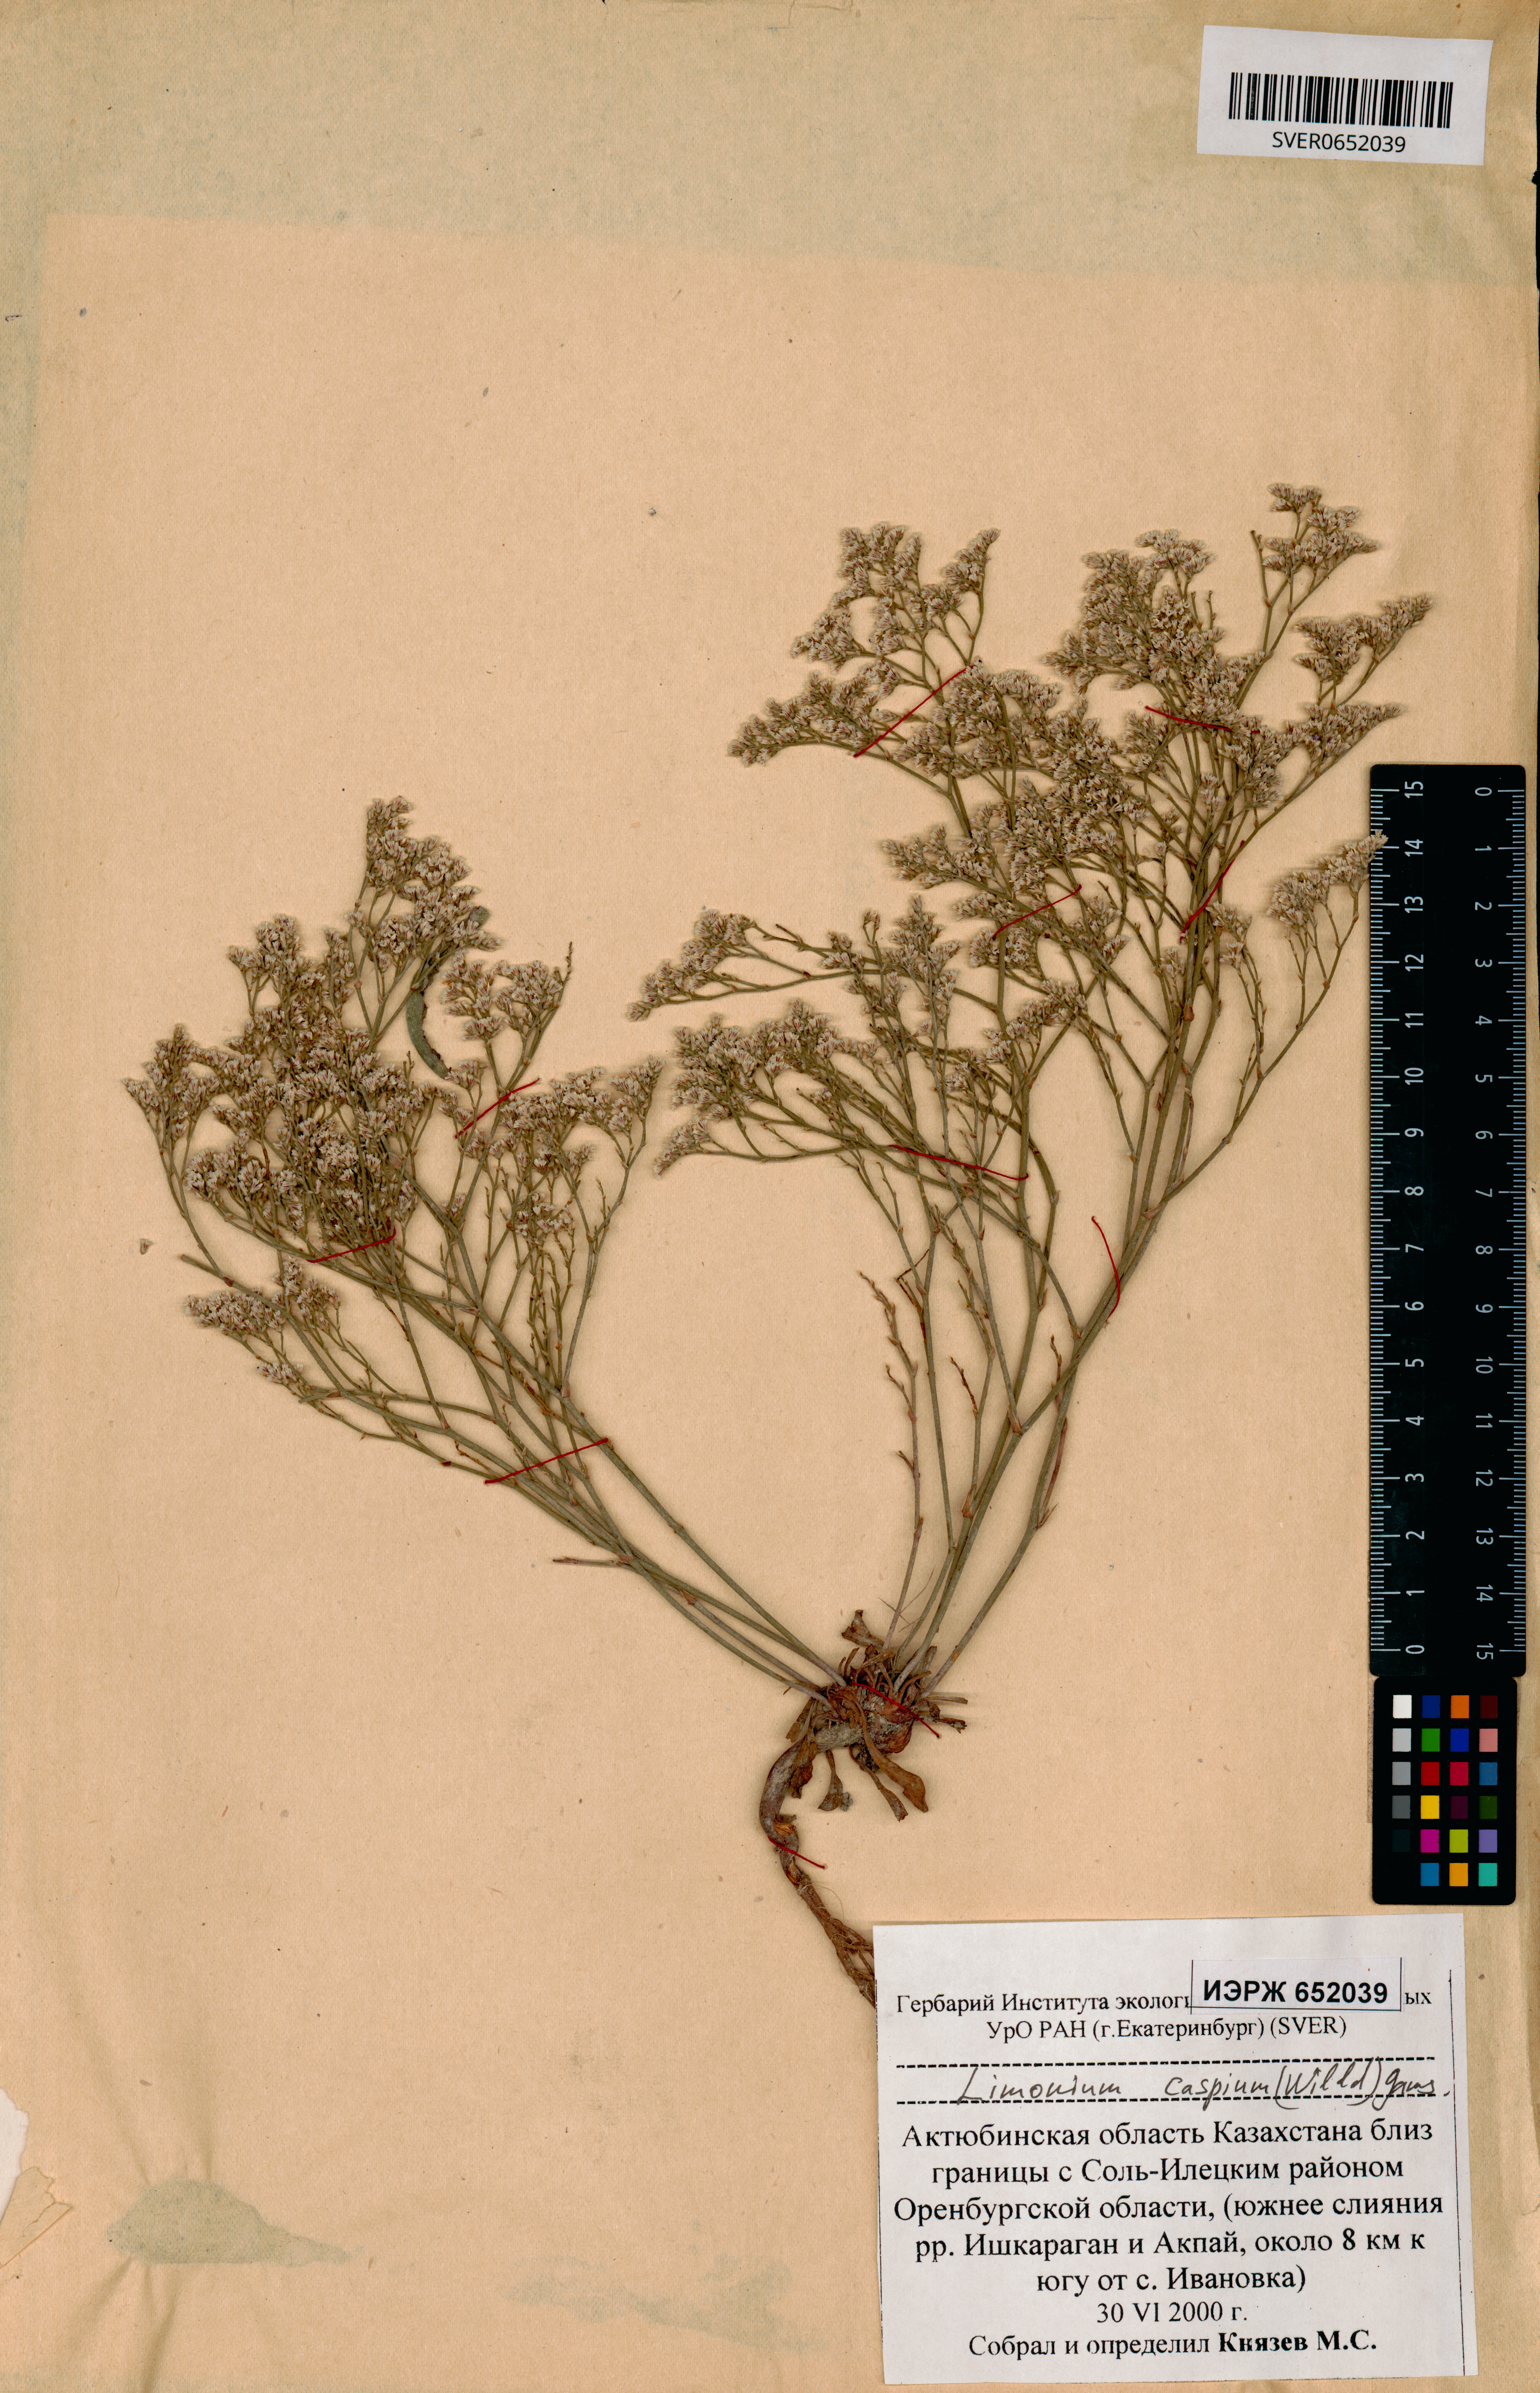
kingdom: Plantae
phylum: Tracheophyta
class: Magnoliopsida
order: Caryophyllales
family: Plumbaginaceae
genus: Limonium
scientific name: Limonium bellidifolium
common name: Matted sea-lavender
